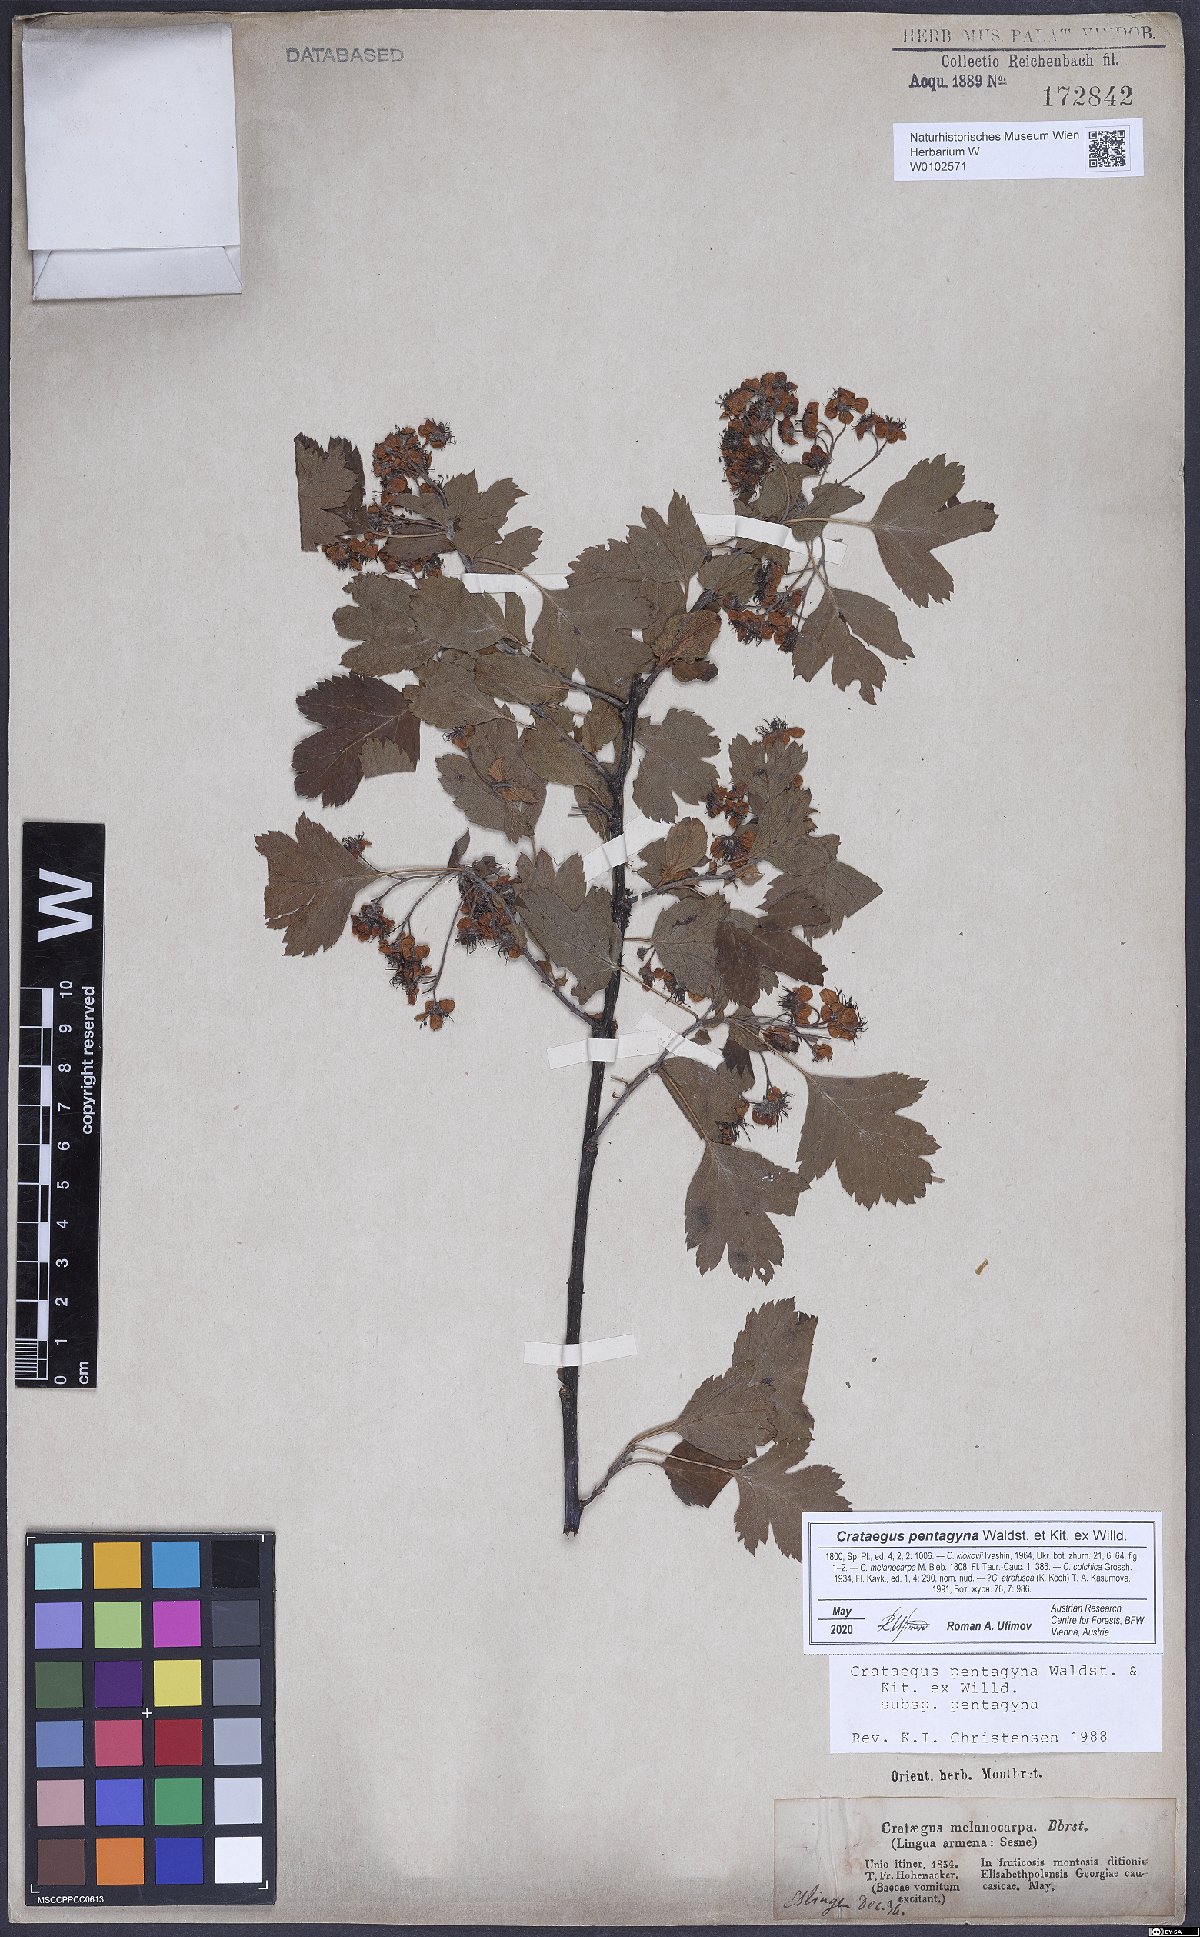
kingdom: Plantae
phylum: Tracheophyta
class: Magnoliopsida
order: Rosales
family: Rosaceae
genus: Crataegus
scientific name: Crataegus pentagyna
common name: Small-flowered black hawthorn
